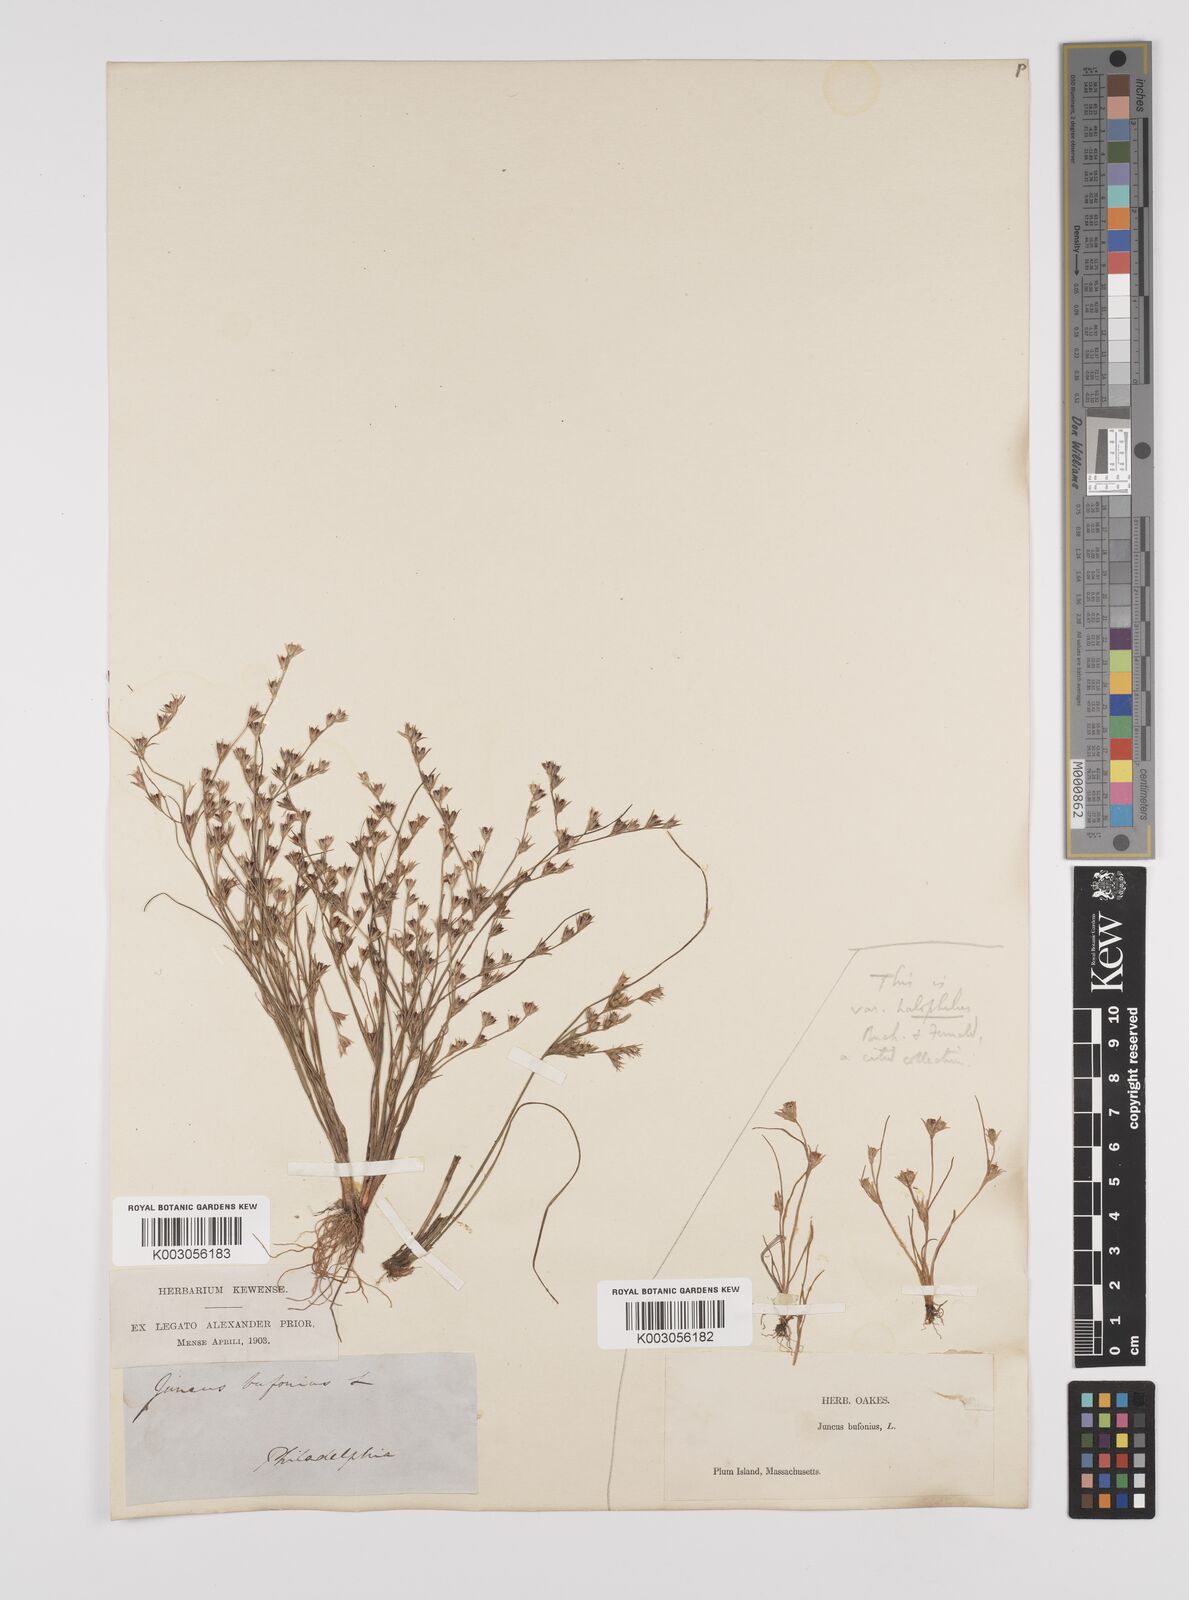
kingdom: Plantae
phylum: Tracheophyta
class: Liliopsida
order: Poales
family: Juncaceae
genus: Juncus
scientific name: Juncus bufonius
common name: Toad rush
